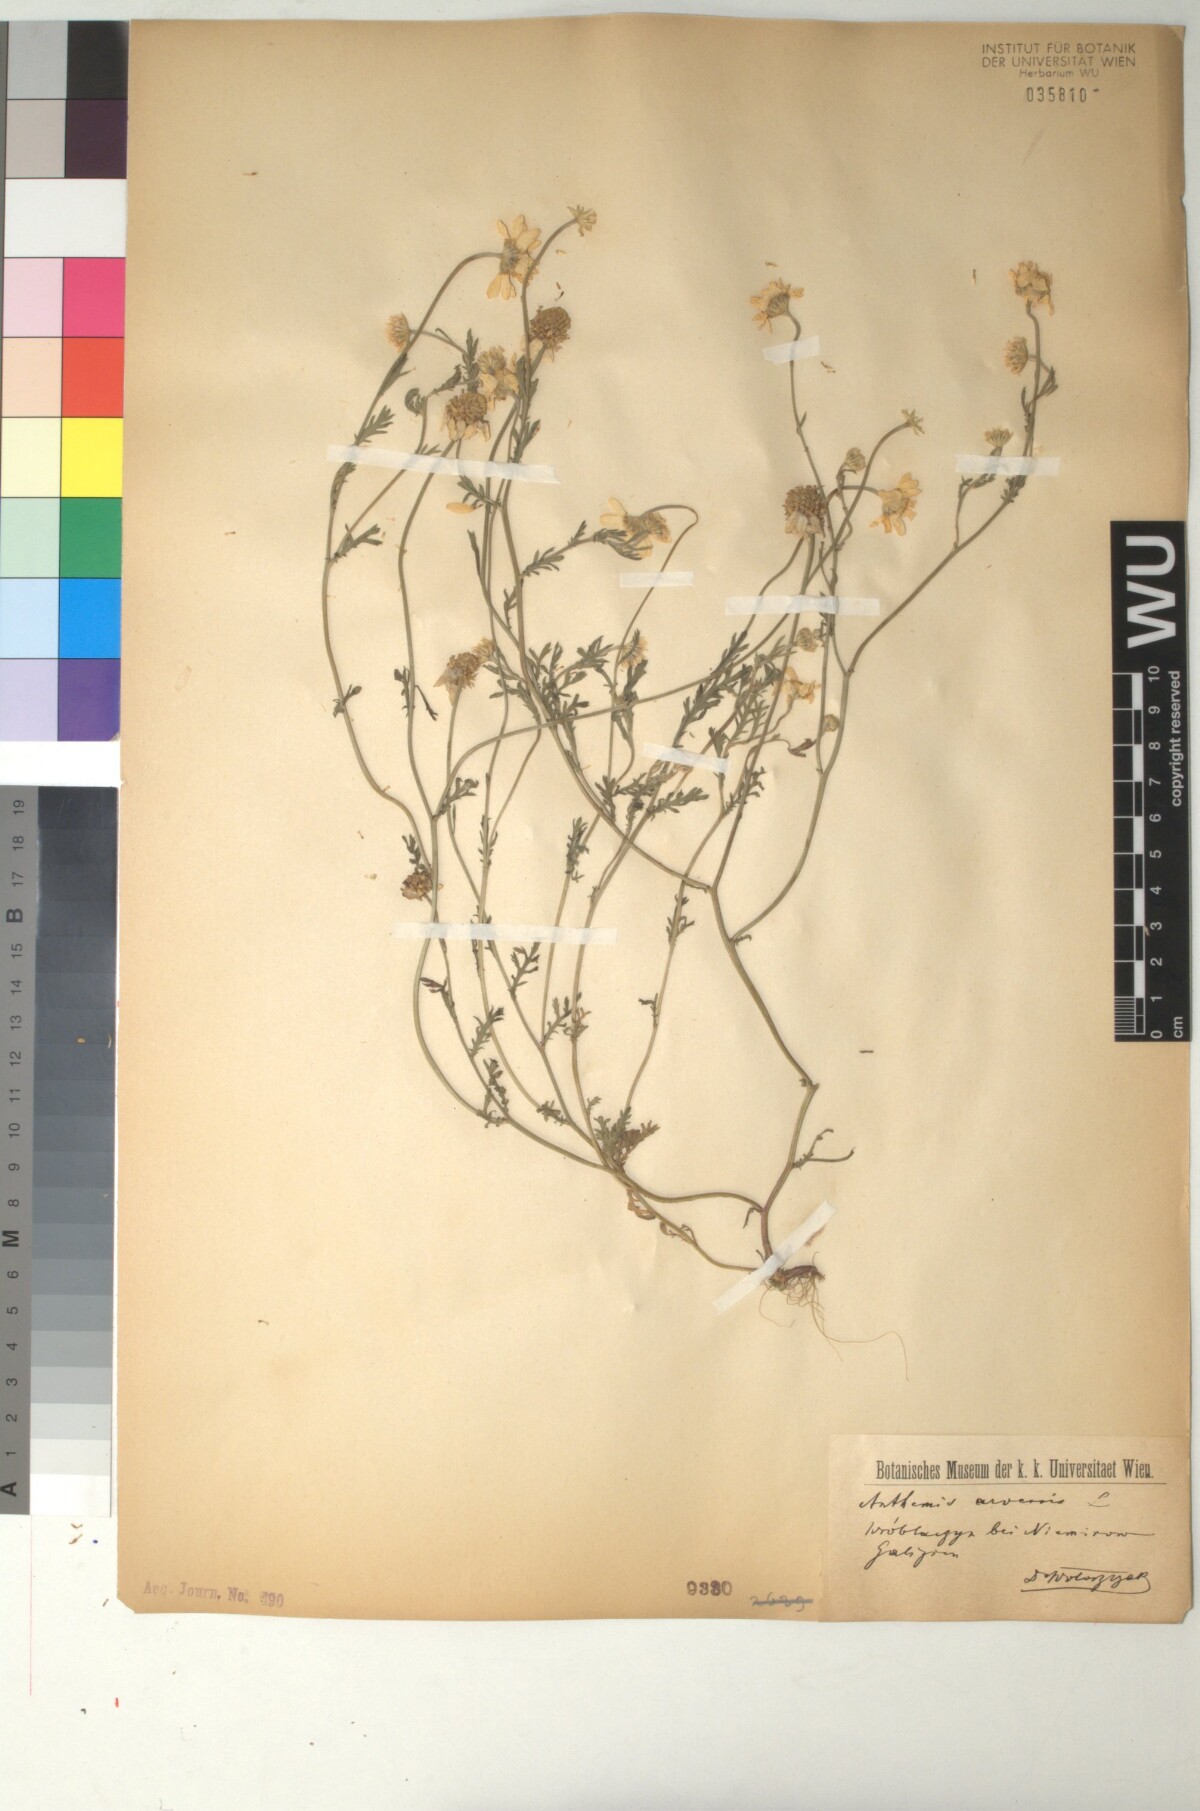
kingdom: Plantae
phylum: Tracheophyta
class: Magnoliopsida
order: Asterales
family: Asteraceae
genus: Anthemis
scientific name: Anthemis arvensis
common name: Corn chamomile
